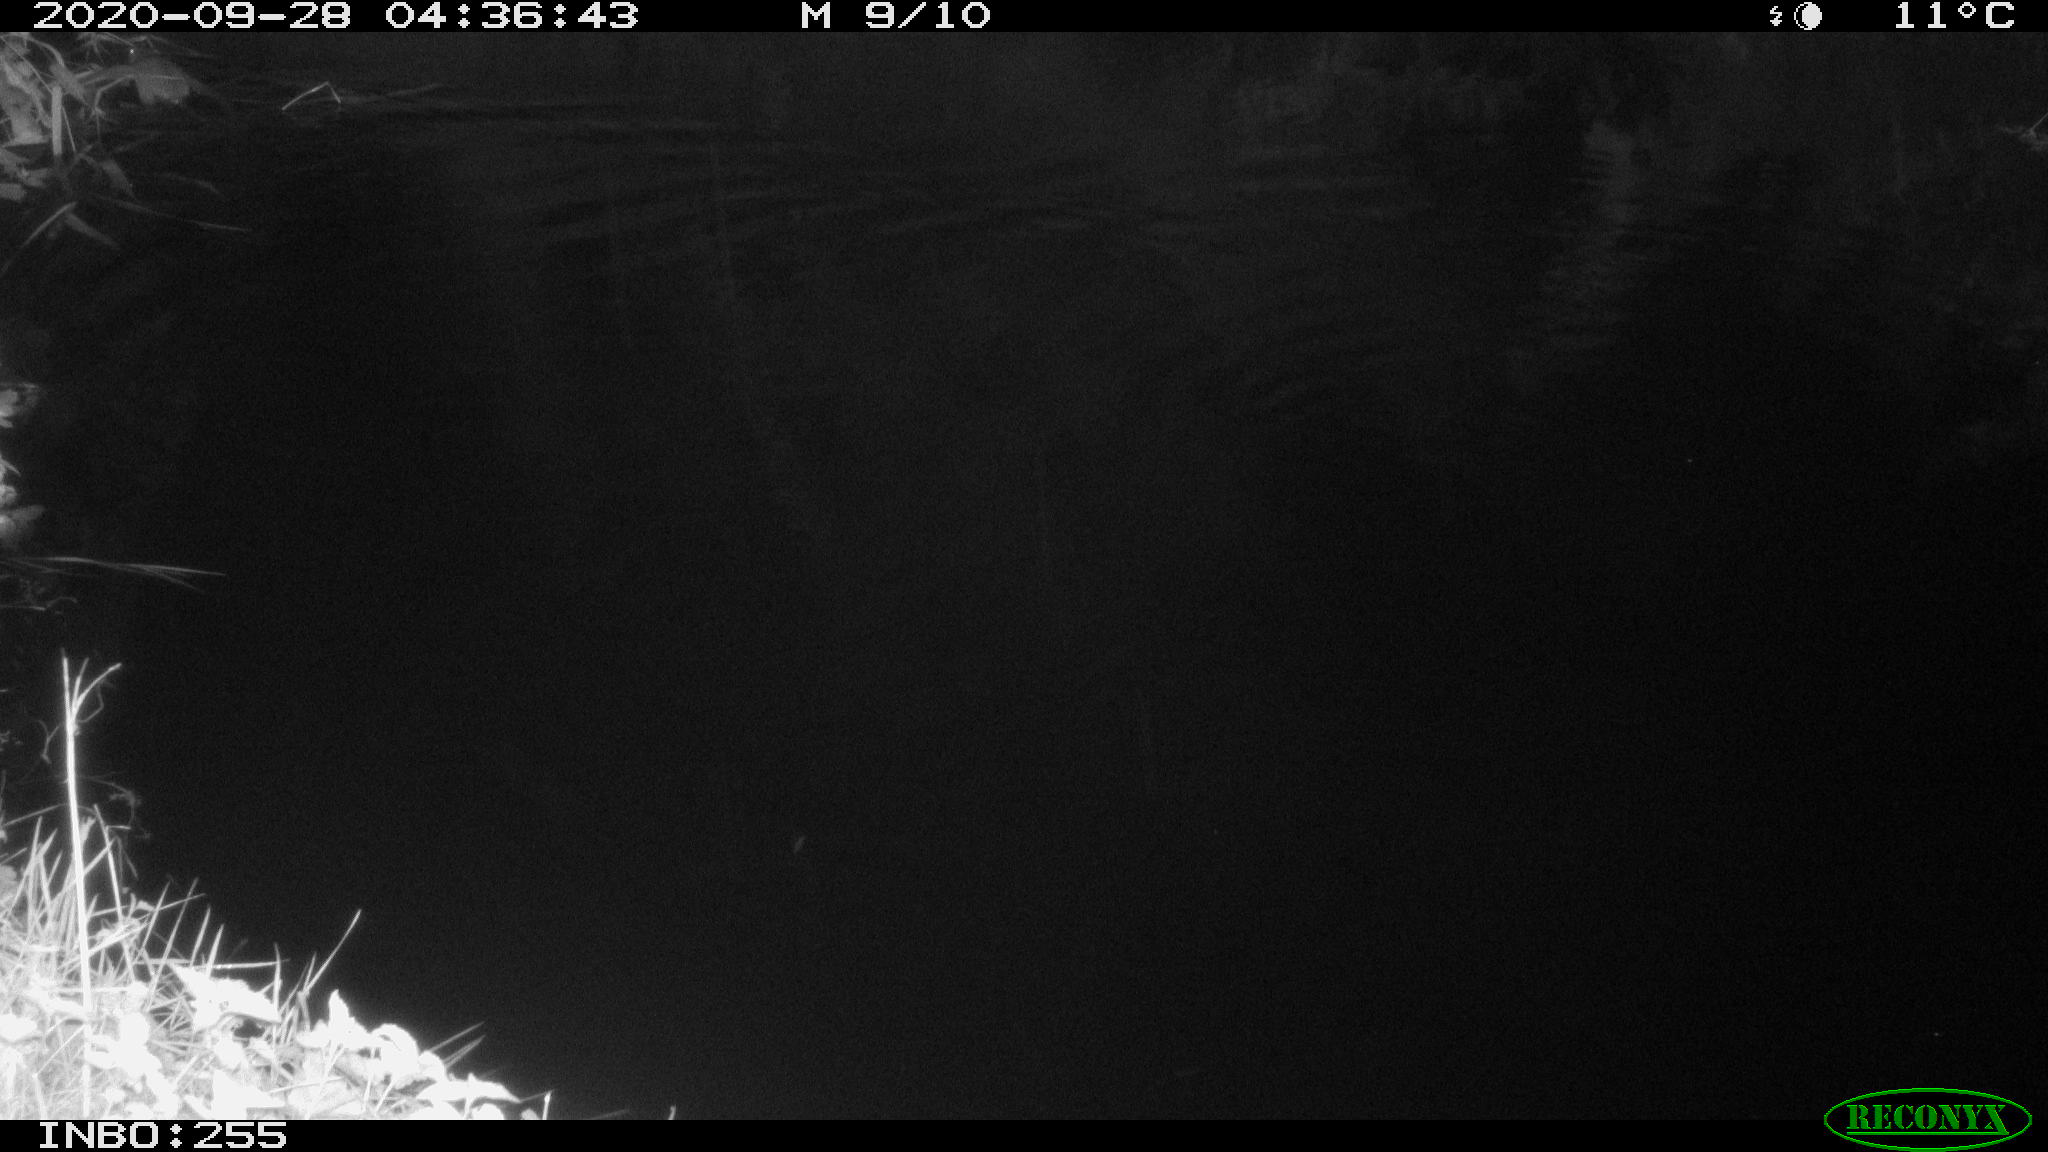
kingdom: Animalia
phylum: Chordata
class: Mammalia
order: Rodentia
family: Muridae
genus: Rattus
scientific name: Rattus norvegicus
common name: Brown rat
